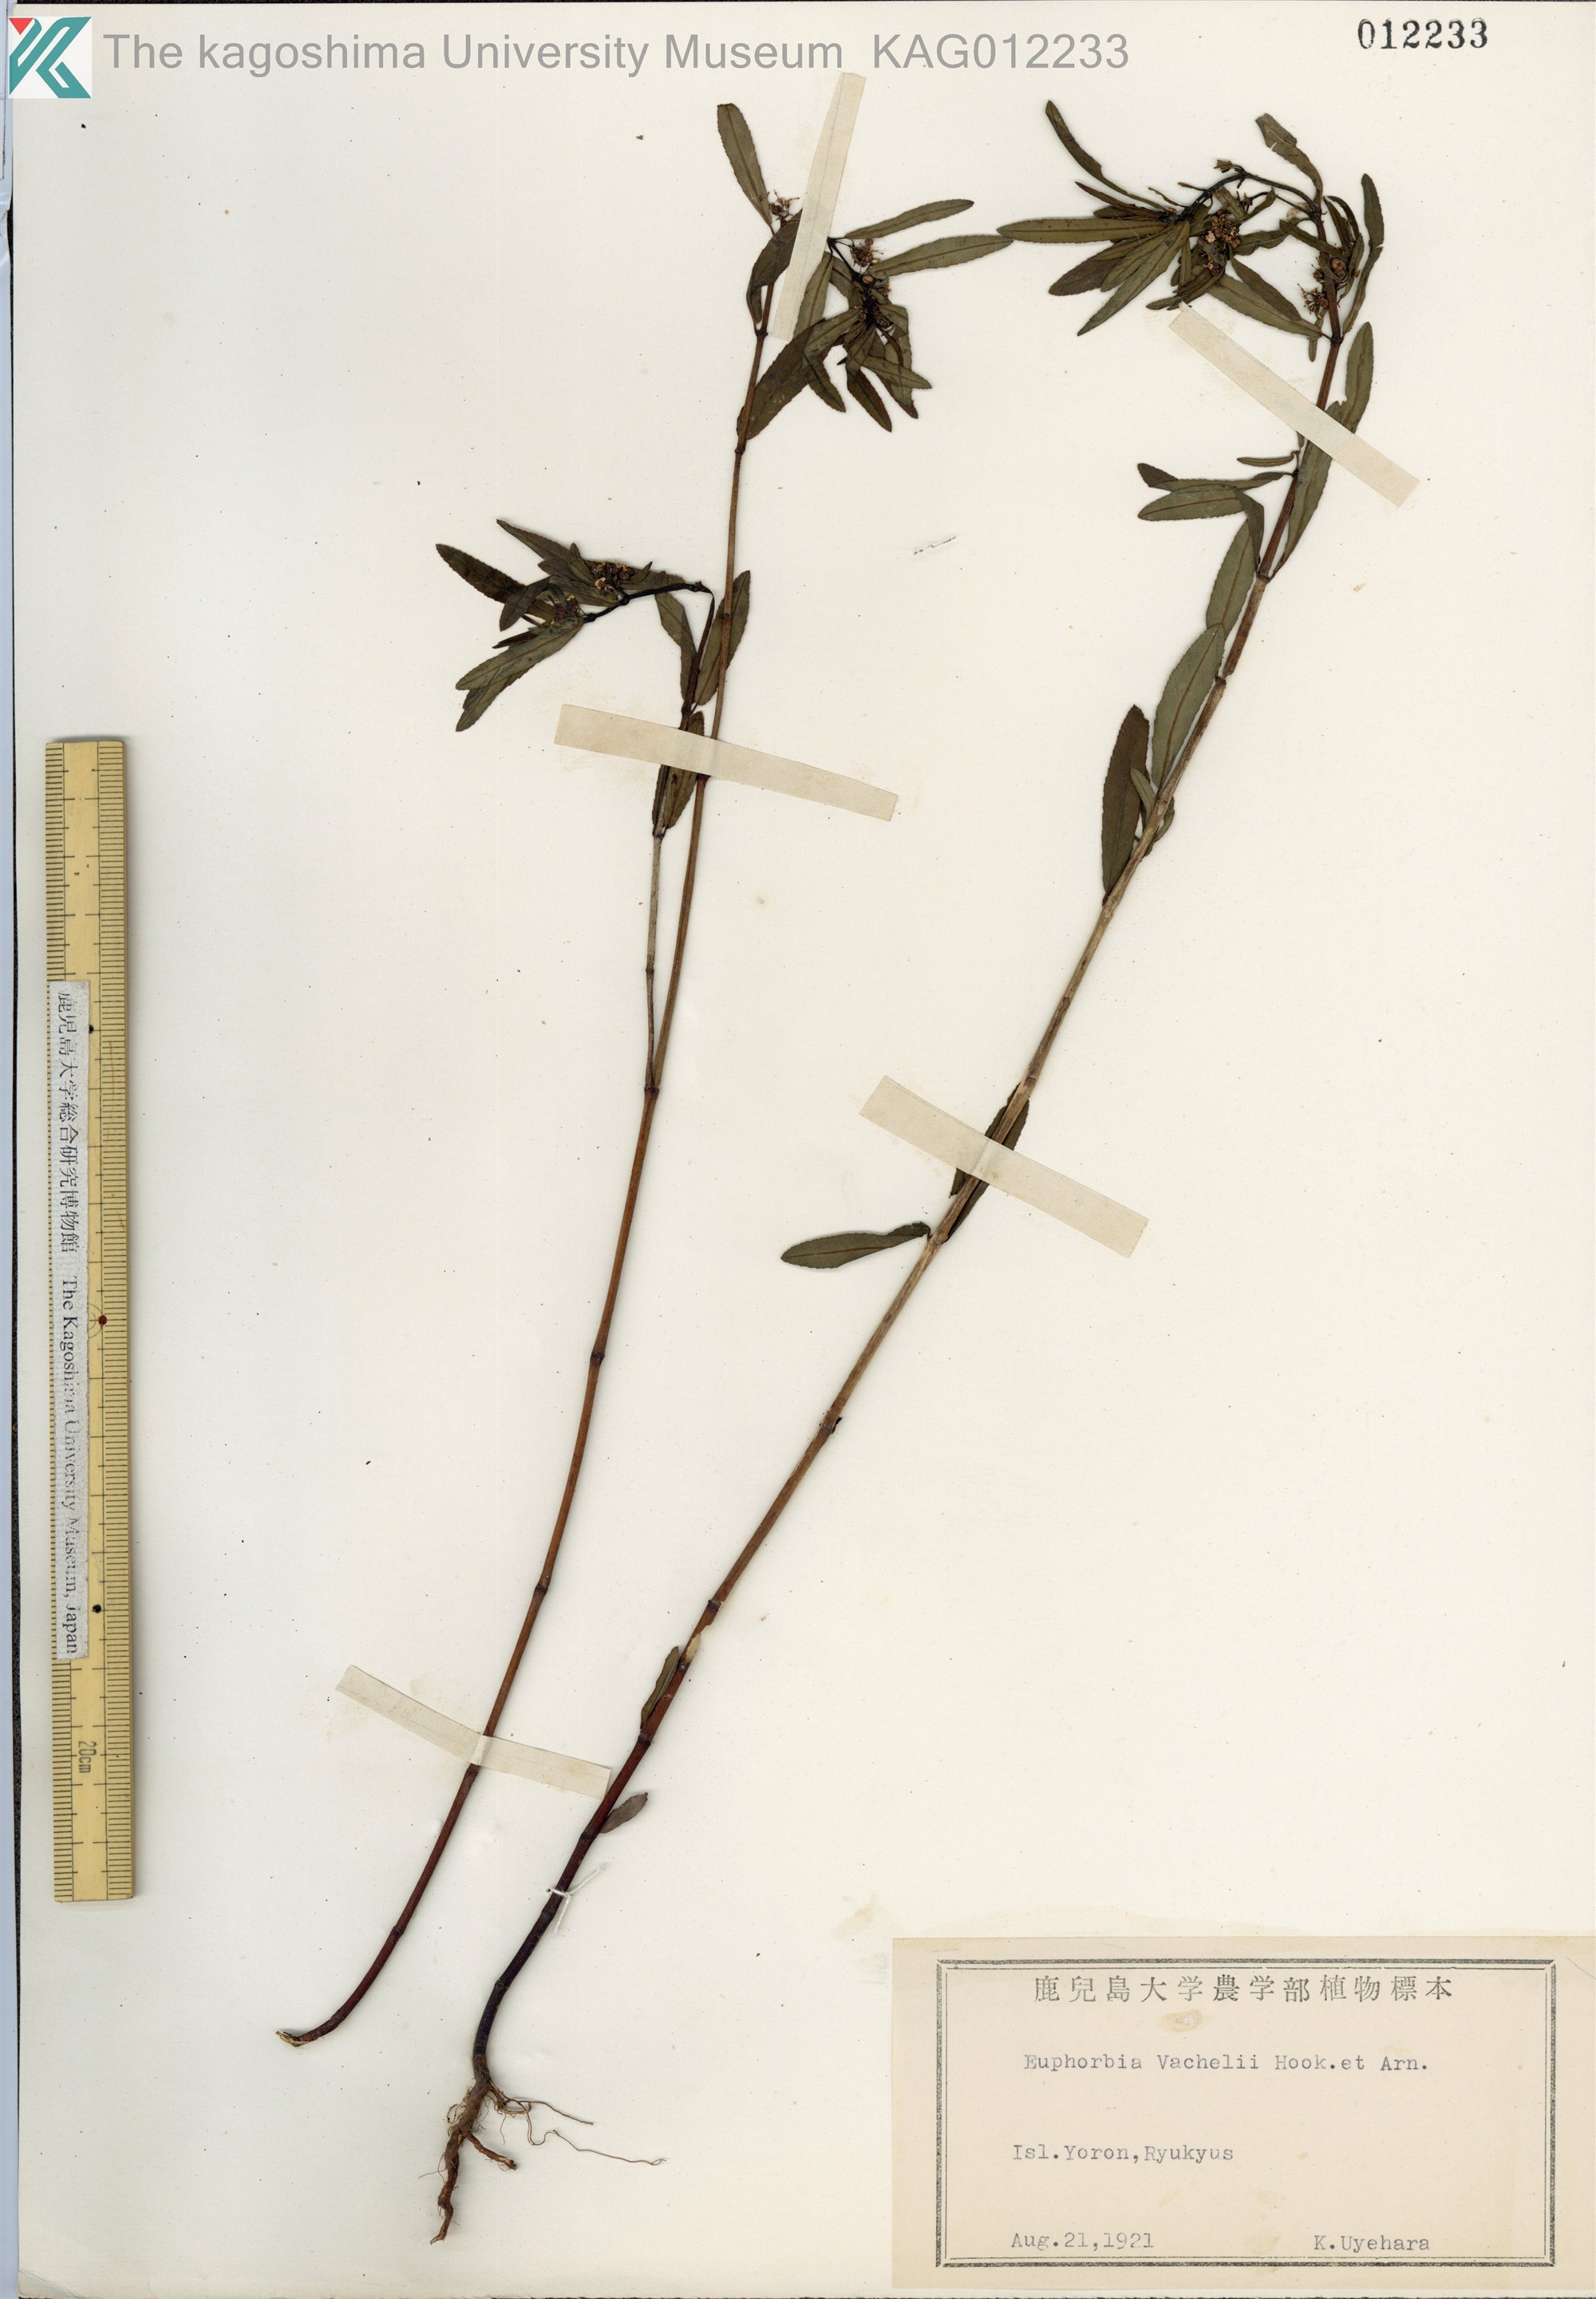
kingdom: Plantae
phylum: Tracheophyta
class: Magnoliopsida
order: Malpighiales
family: Euphorbiaceae
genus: Euphorbia
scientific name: Euphorbia bifida
